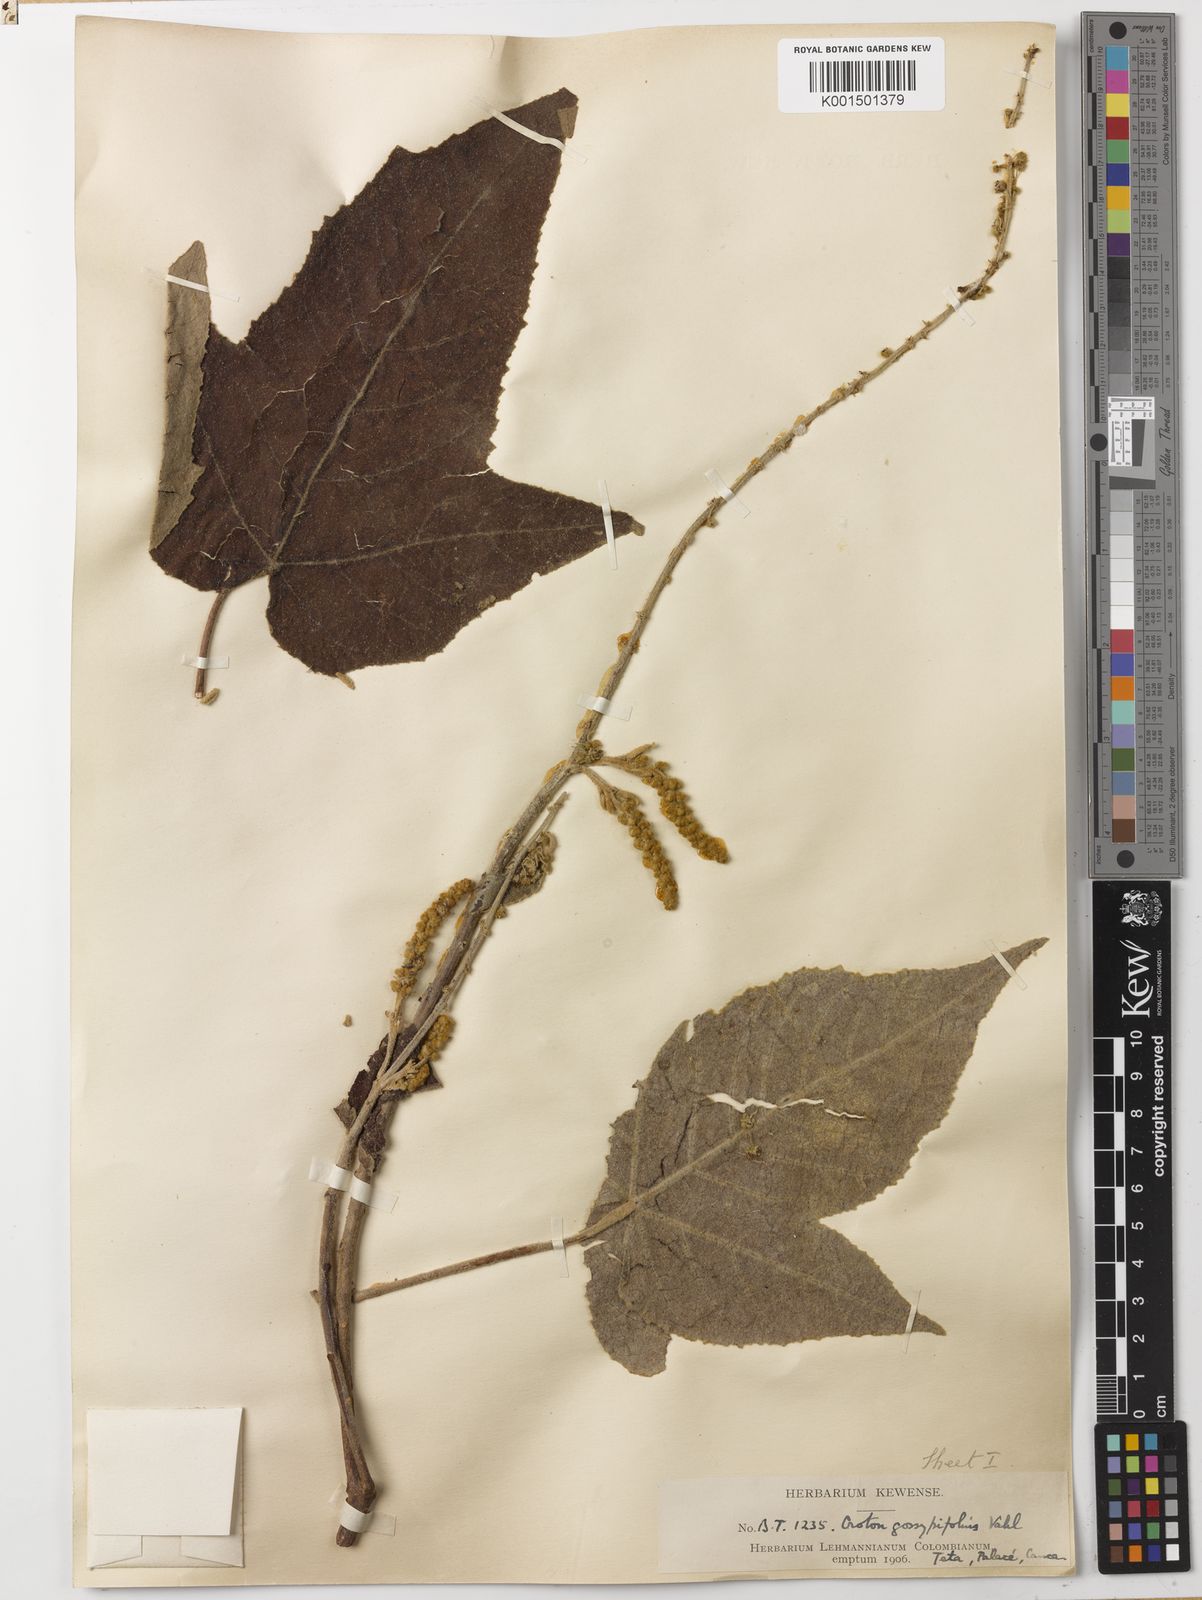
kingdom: Plantae
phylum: Tracheophyta
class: Magnoliopsida
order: Malpighiales
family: Euphorbiaceae
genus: Croton
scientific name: Croton gossypiifolius
